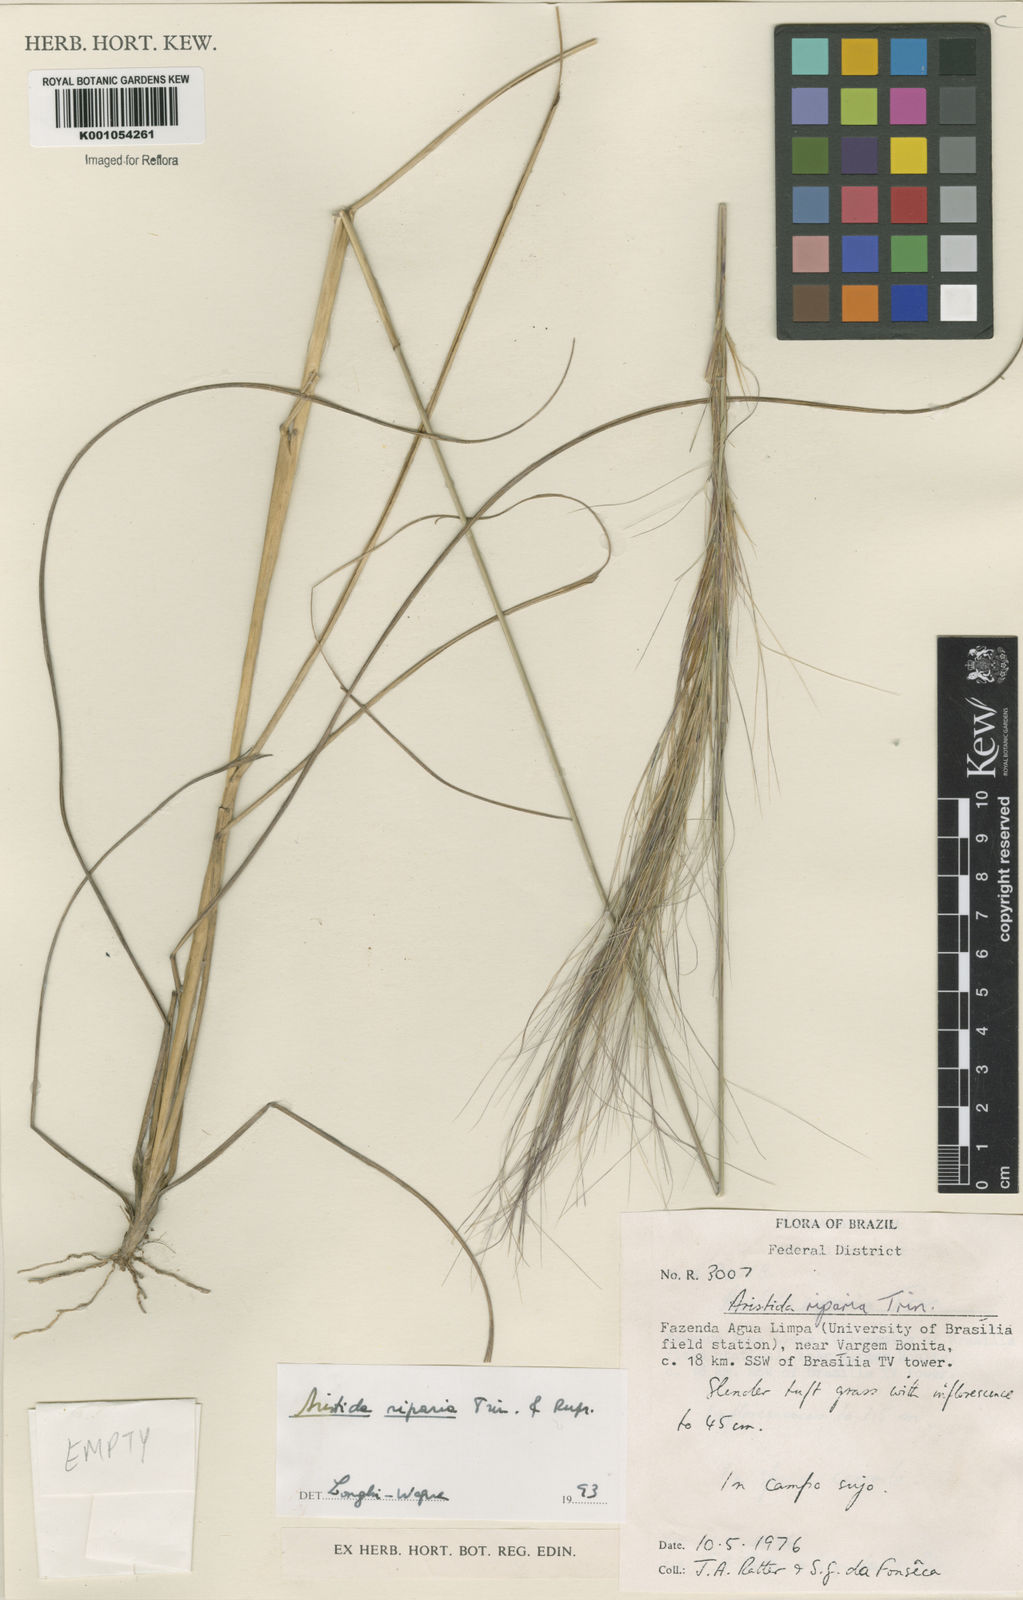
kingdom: Plantae
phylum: Tracheophyta
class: Liliopsida
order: Poales
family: Poaceae
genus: Aristida
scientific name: Aristida riparia
